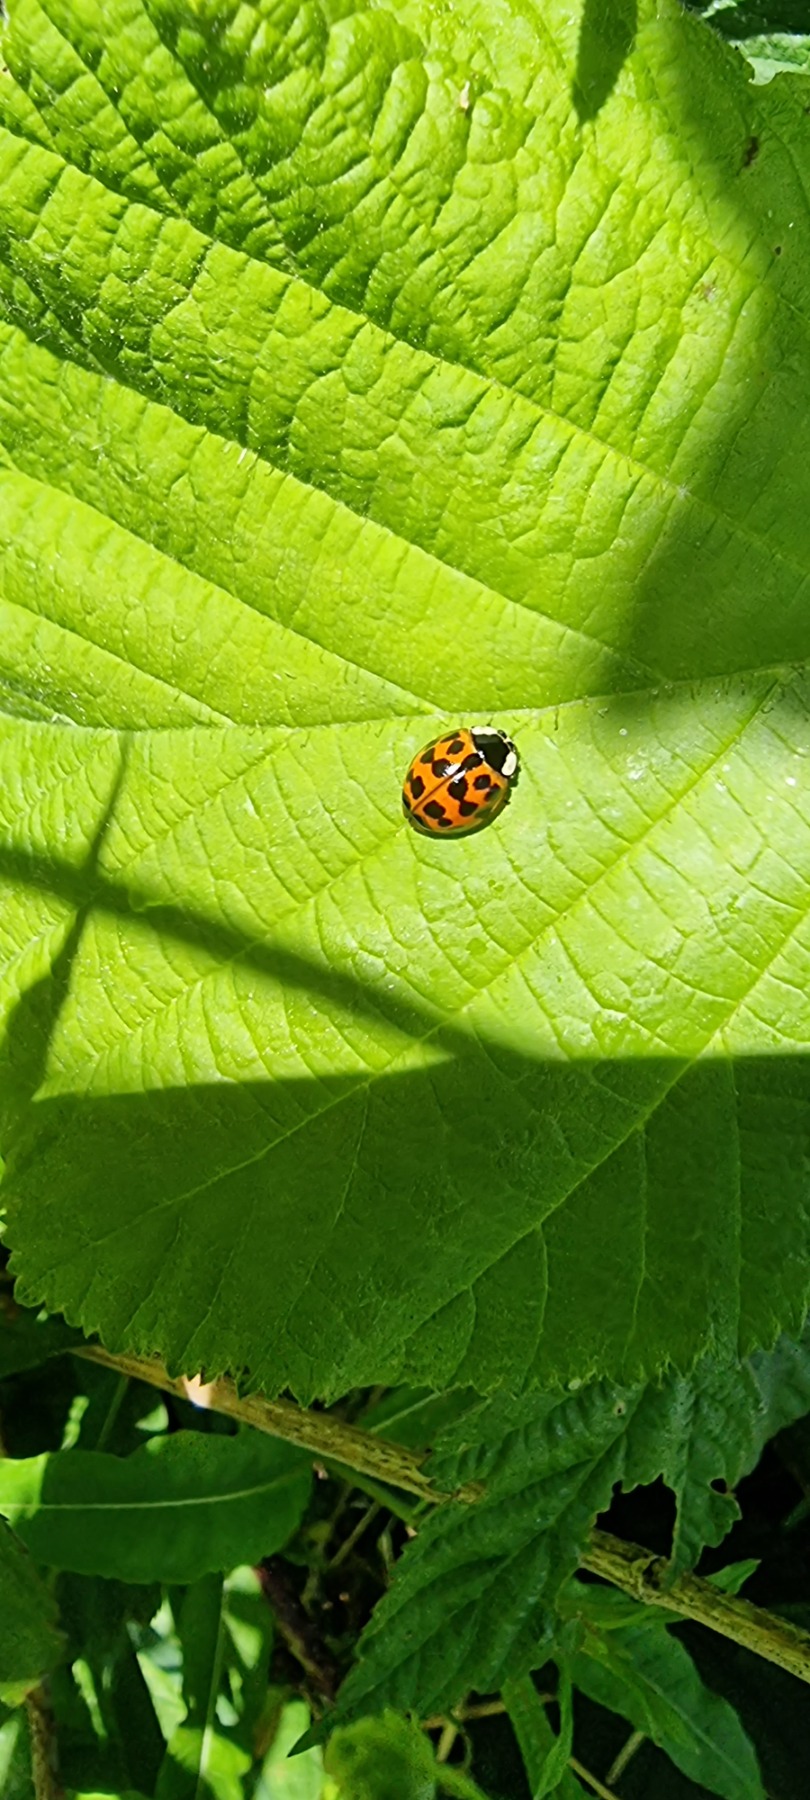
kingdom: Animalia
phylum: Arthropoda
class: Insecta
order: Coleoptera
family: Coccinellidae
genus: Harmonia
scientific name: Harmonia axyridis
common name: Harlekinmariehøne
